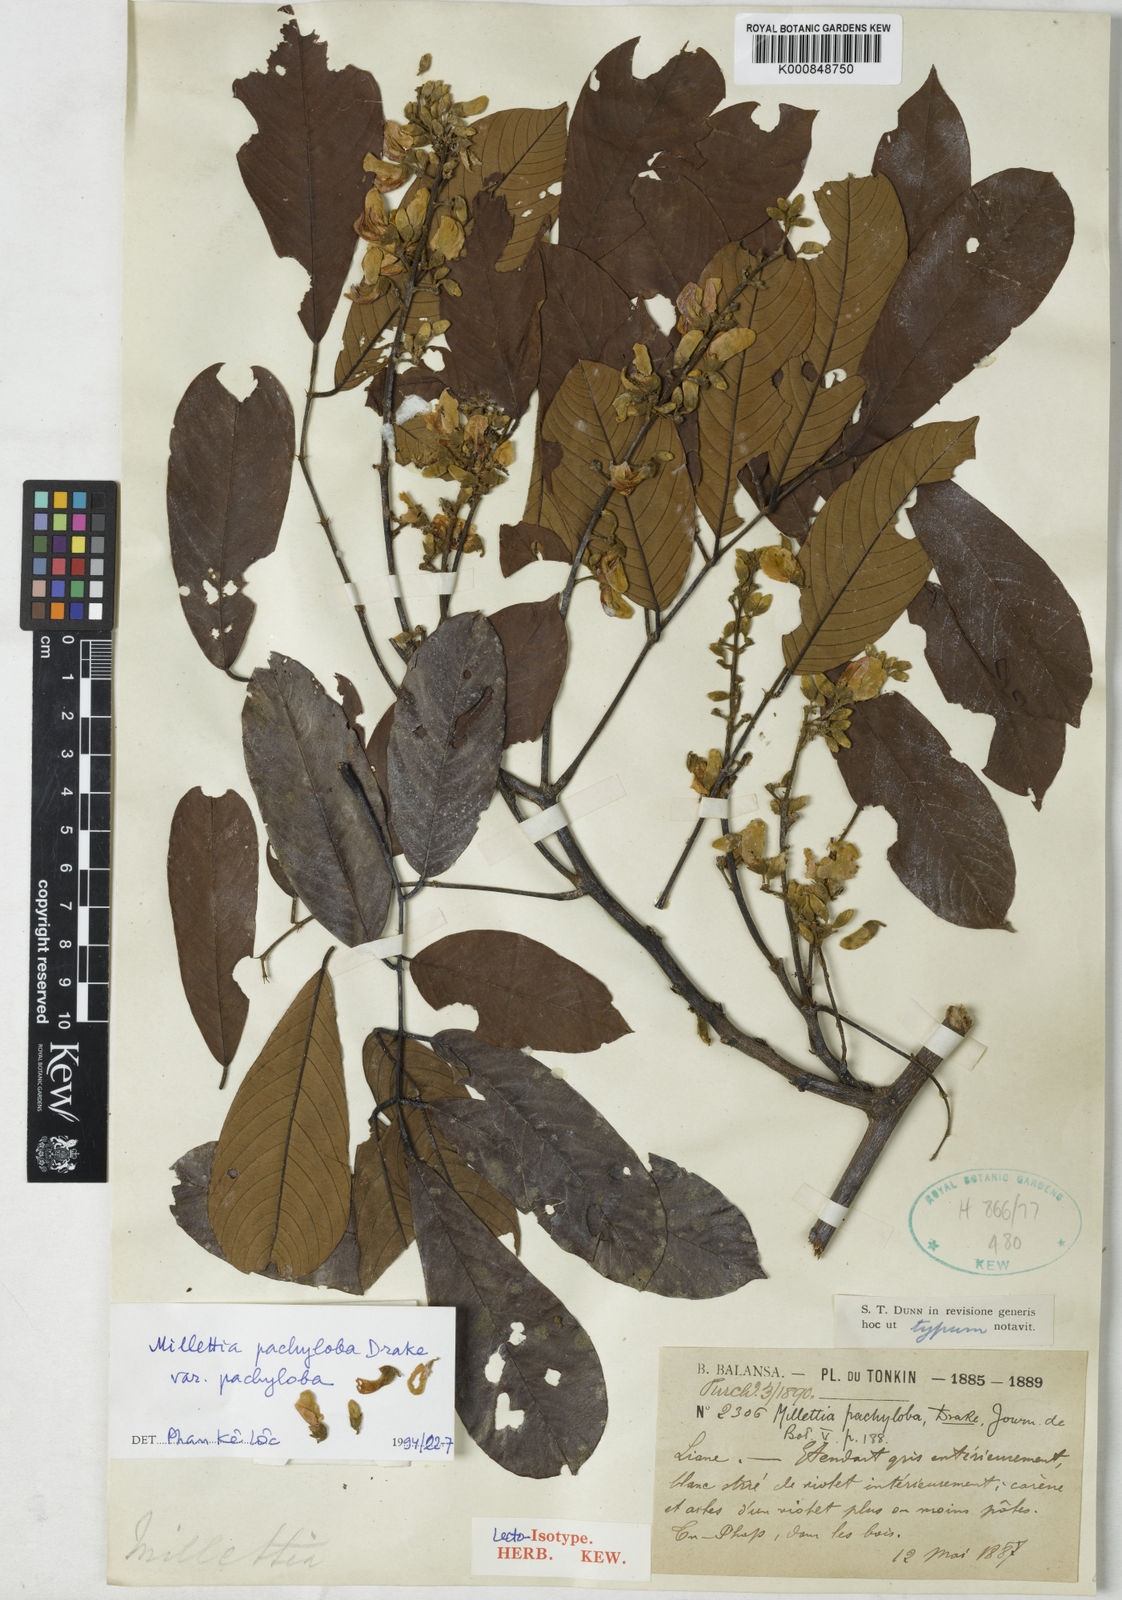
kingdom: Plantae
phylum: Tracheophyta
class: Magnoliopsida
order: Fabales
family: Fabaceae
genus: Millettia
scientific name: Millettia pachyloba
